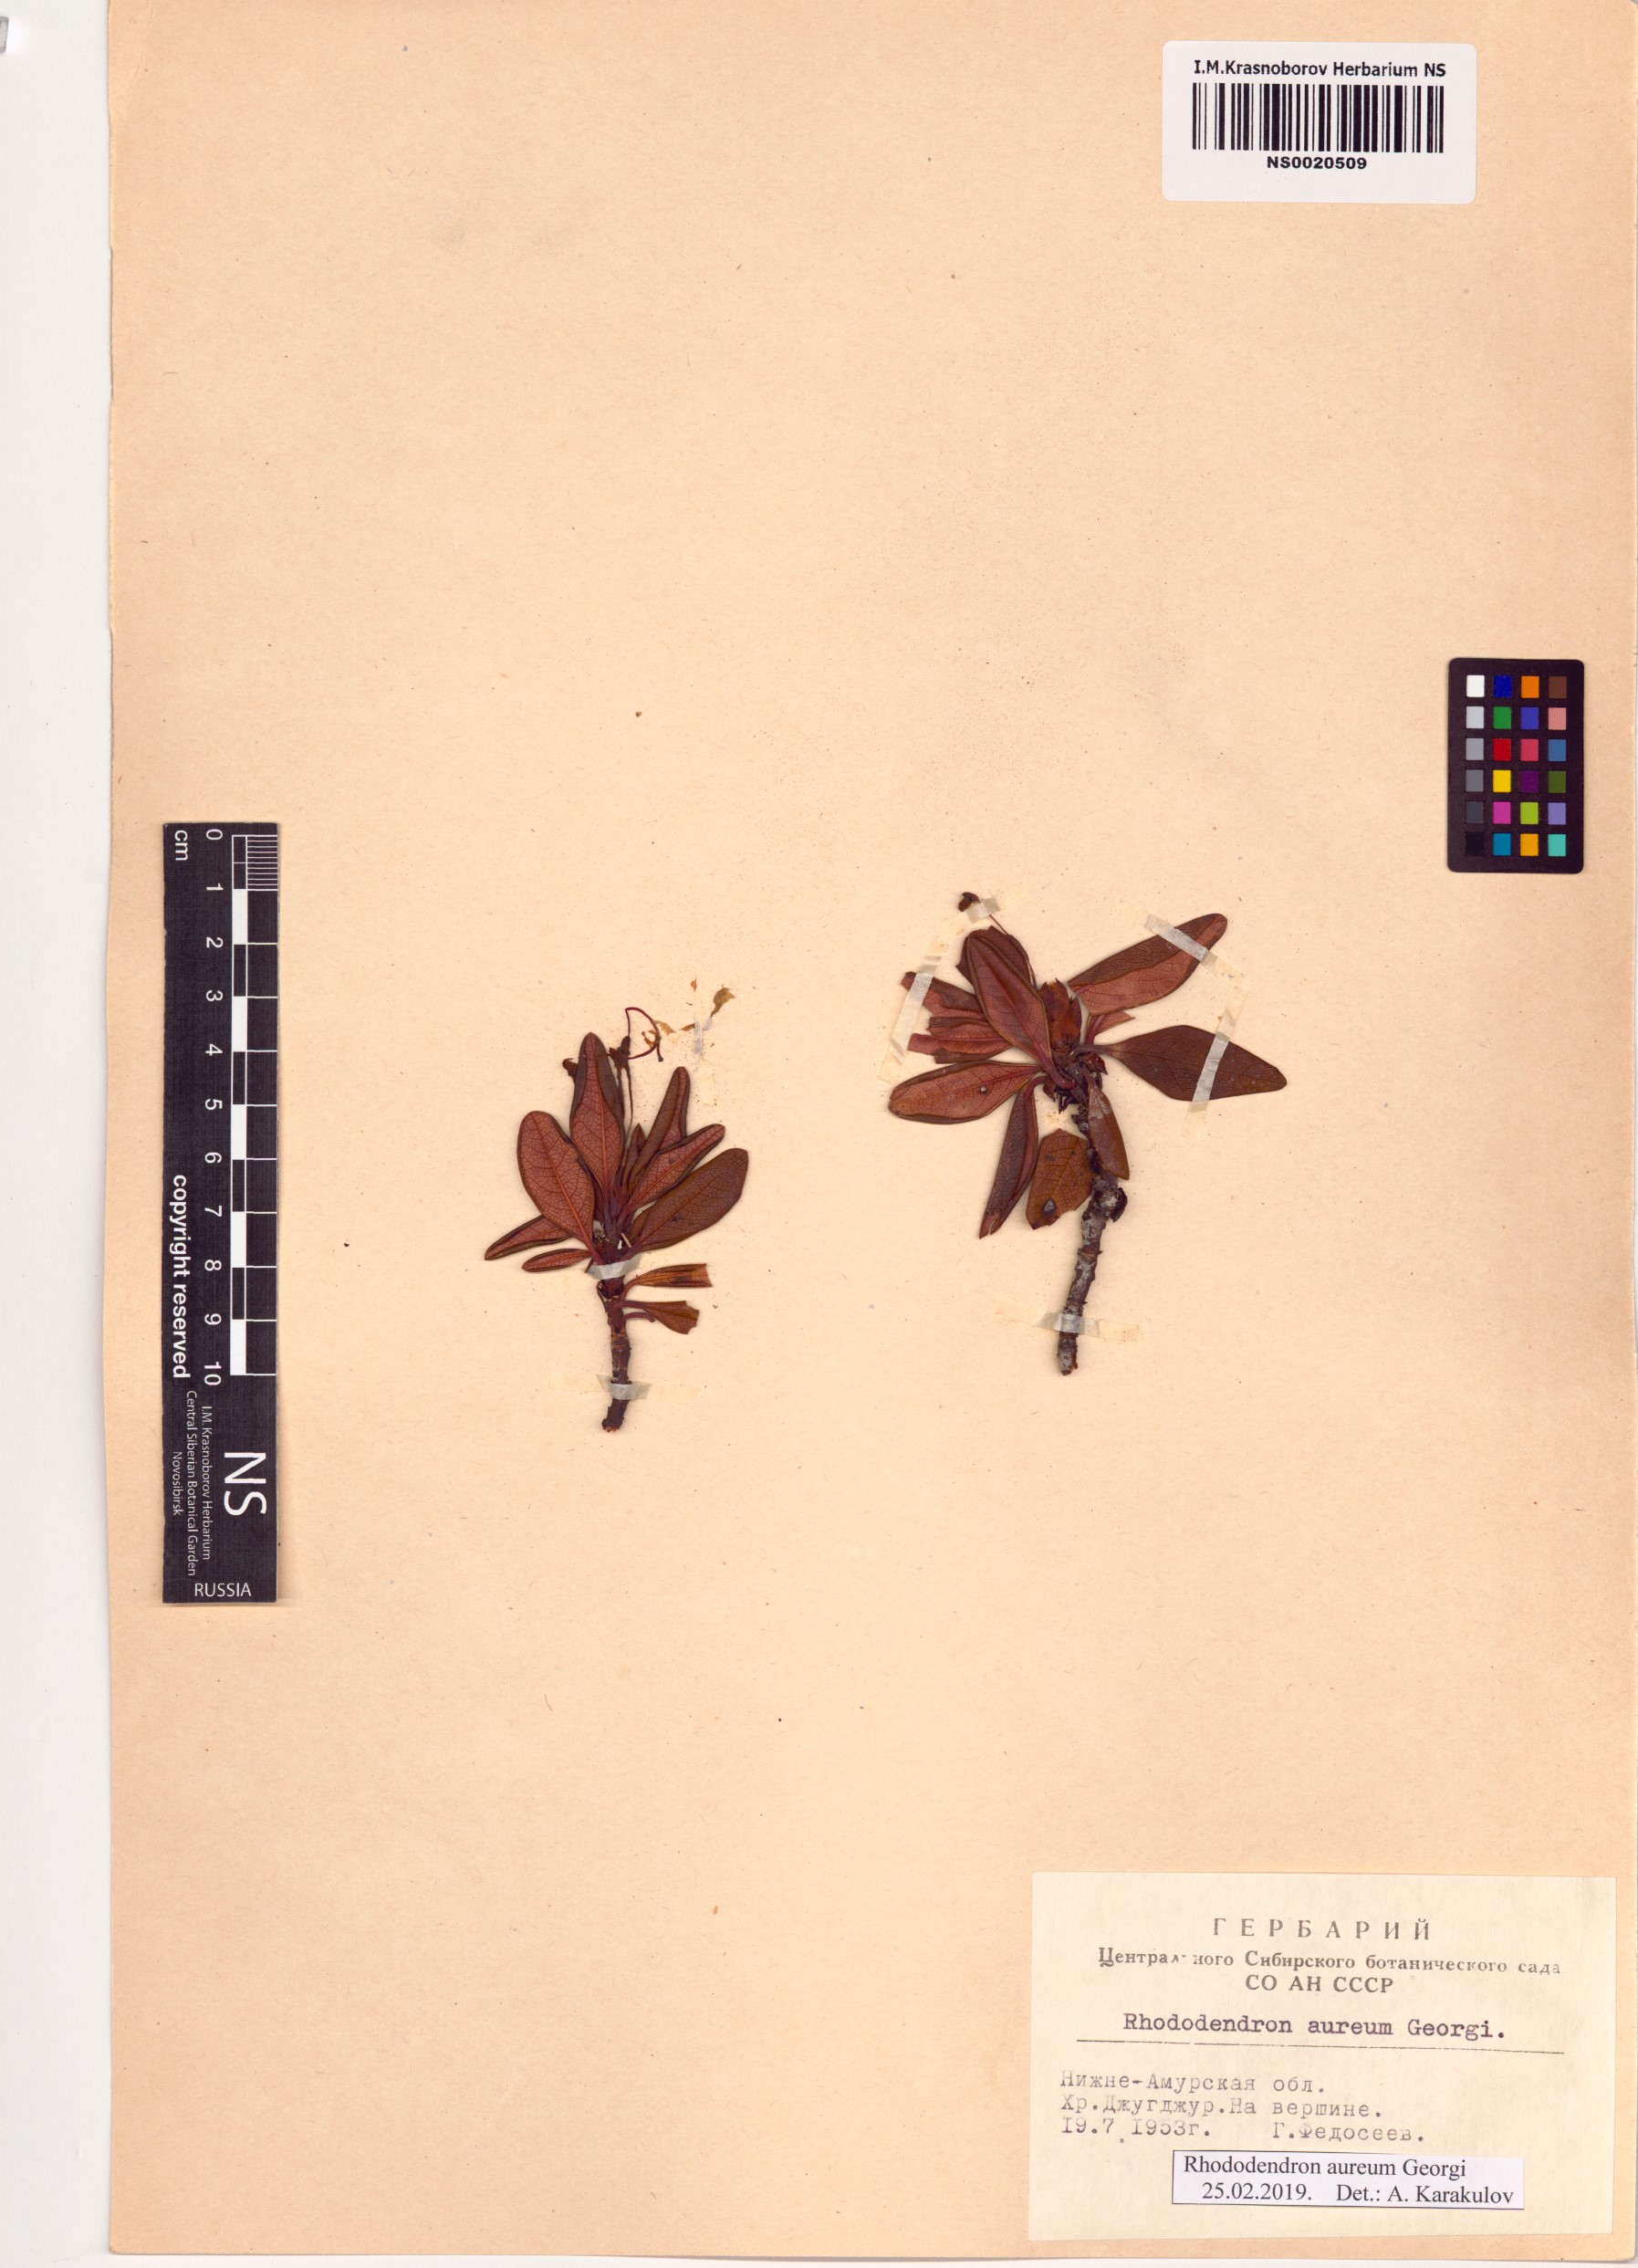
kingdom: Plantae
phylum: Tracheophyta
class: Magnoliopsida
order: Ericales
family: Ericaceae
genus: Rhododendron
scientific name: Rhododendron aureum
